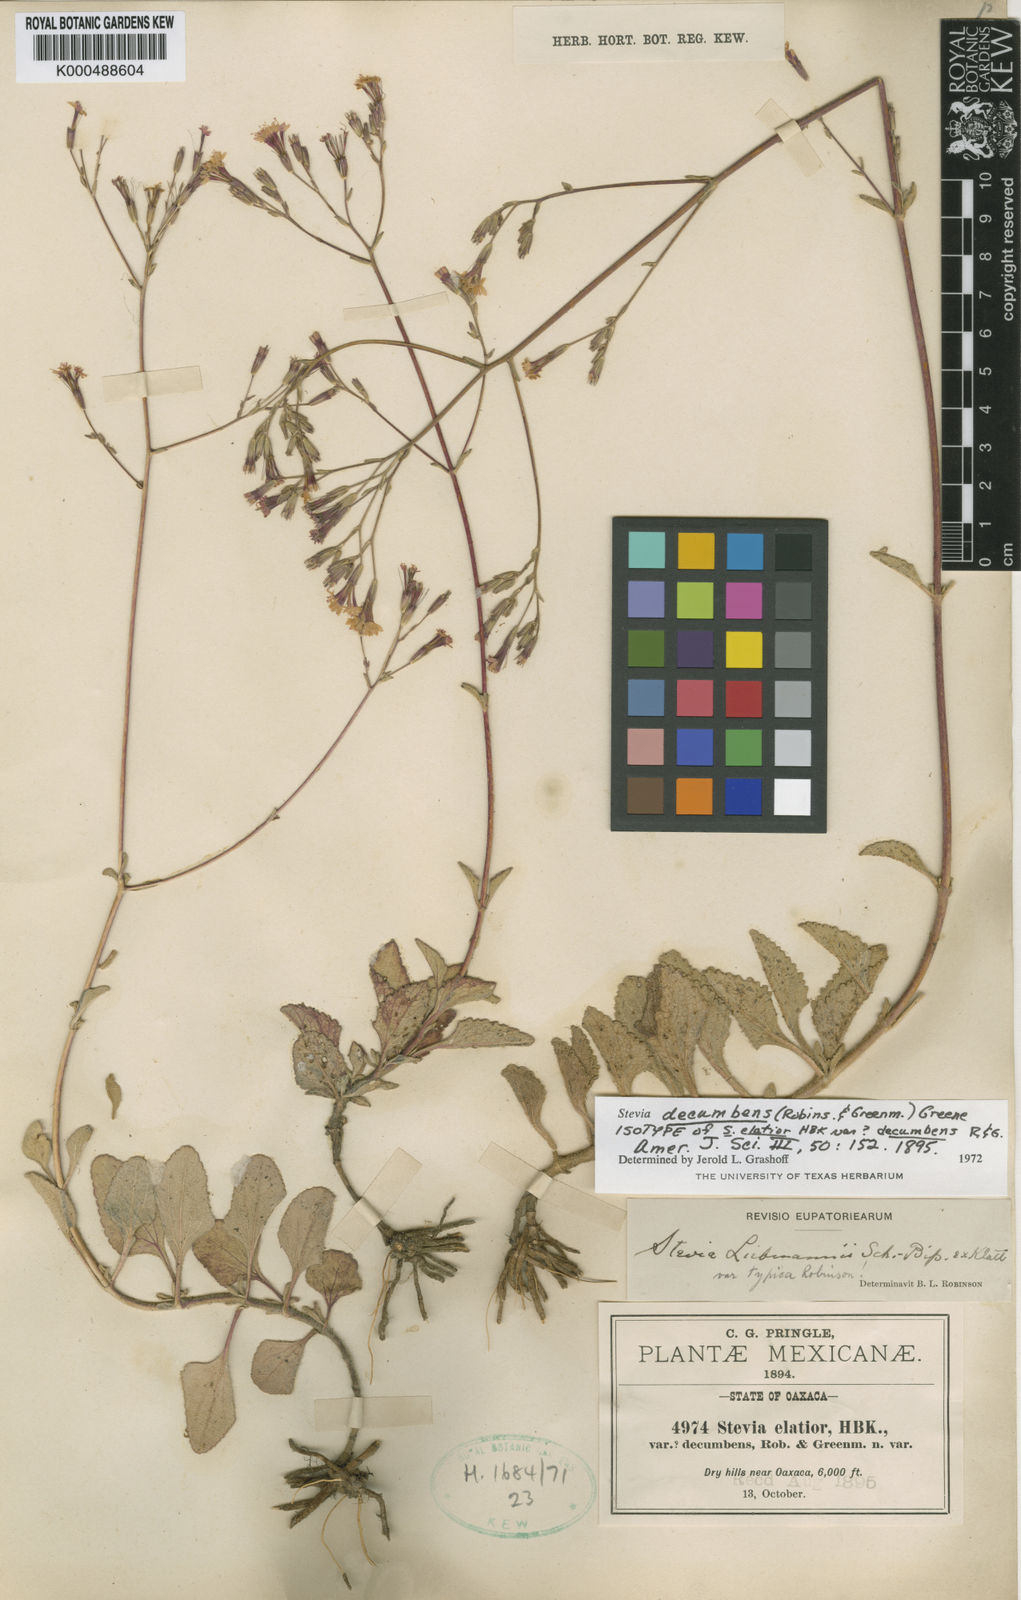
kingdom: Plantae
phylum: Tracheophyta
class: Magnoliopsida
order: Asterales
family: Asteraceae
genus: Stevia
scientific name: Stevia
